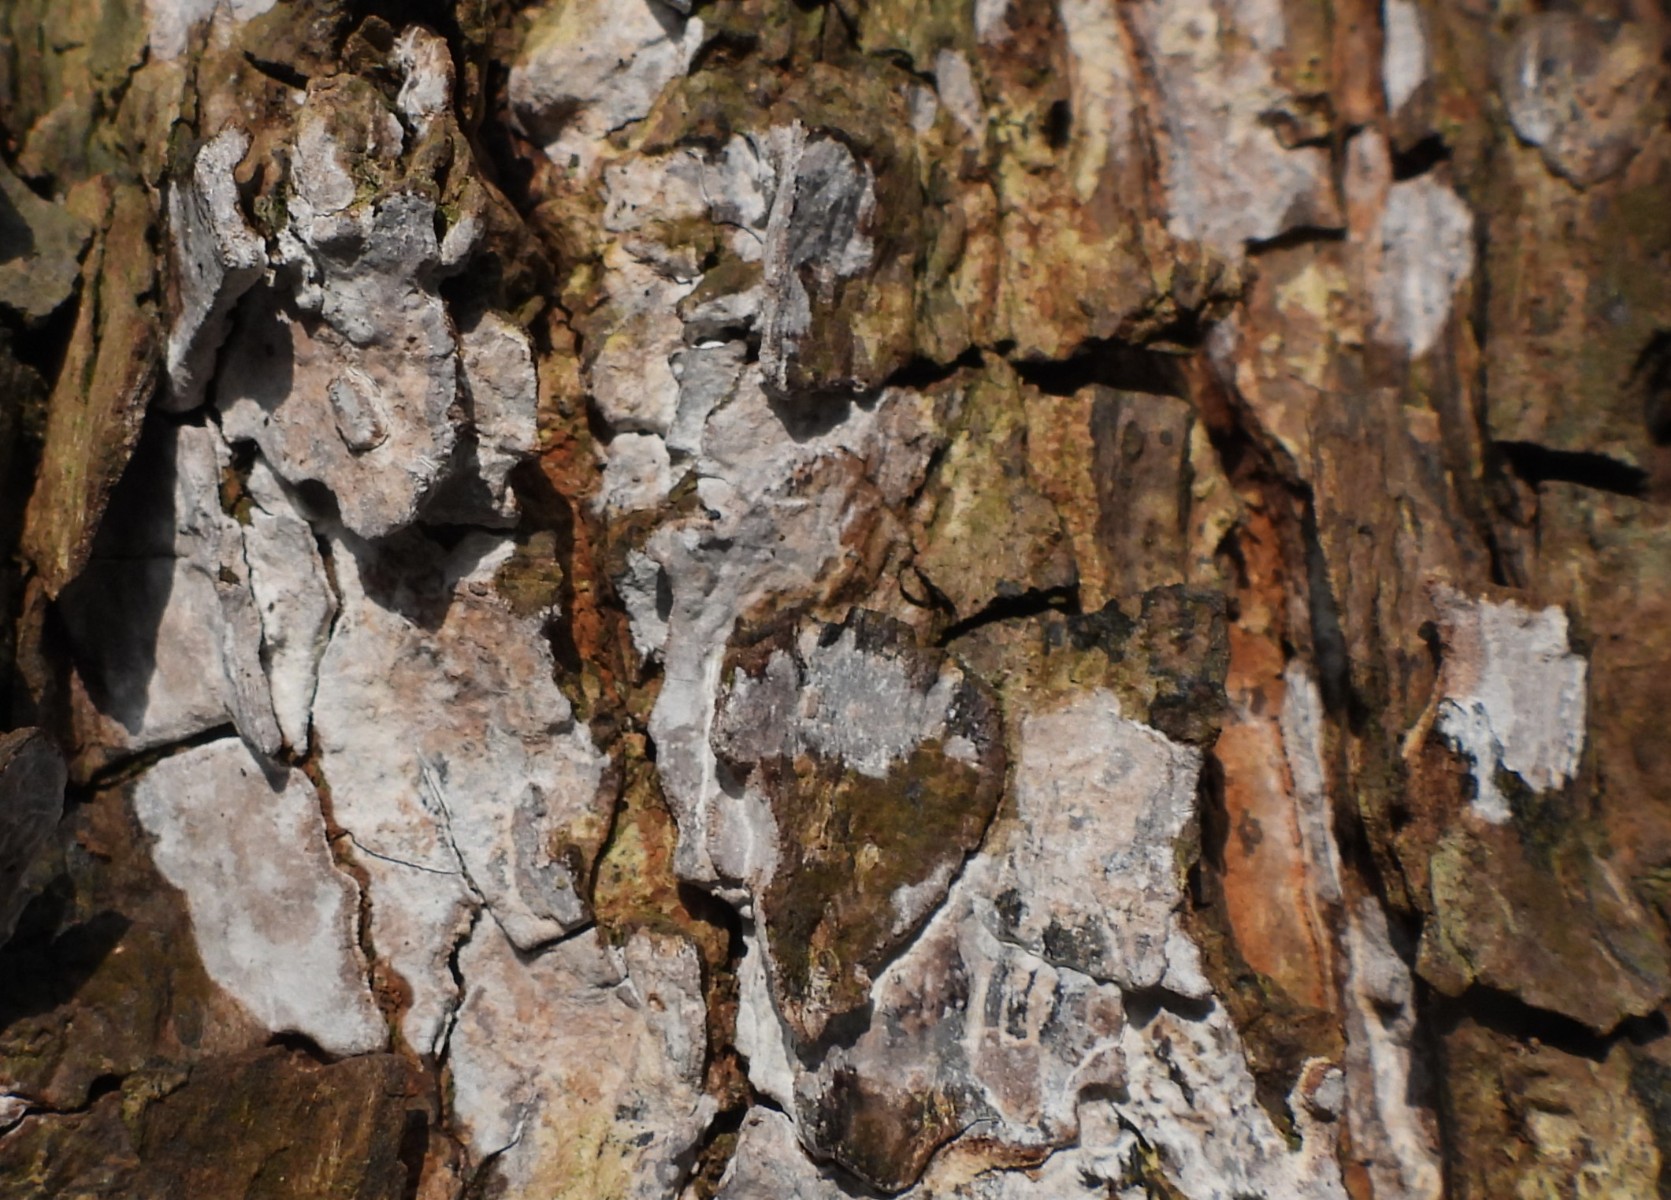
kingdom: Fungi
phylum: Basidiomycota
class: Agaricomycetes
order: Agaricales
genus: Dendrothele
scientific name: Dendrothele acerina
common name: navr-kalkplet
